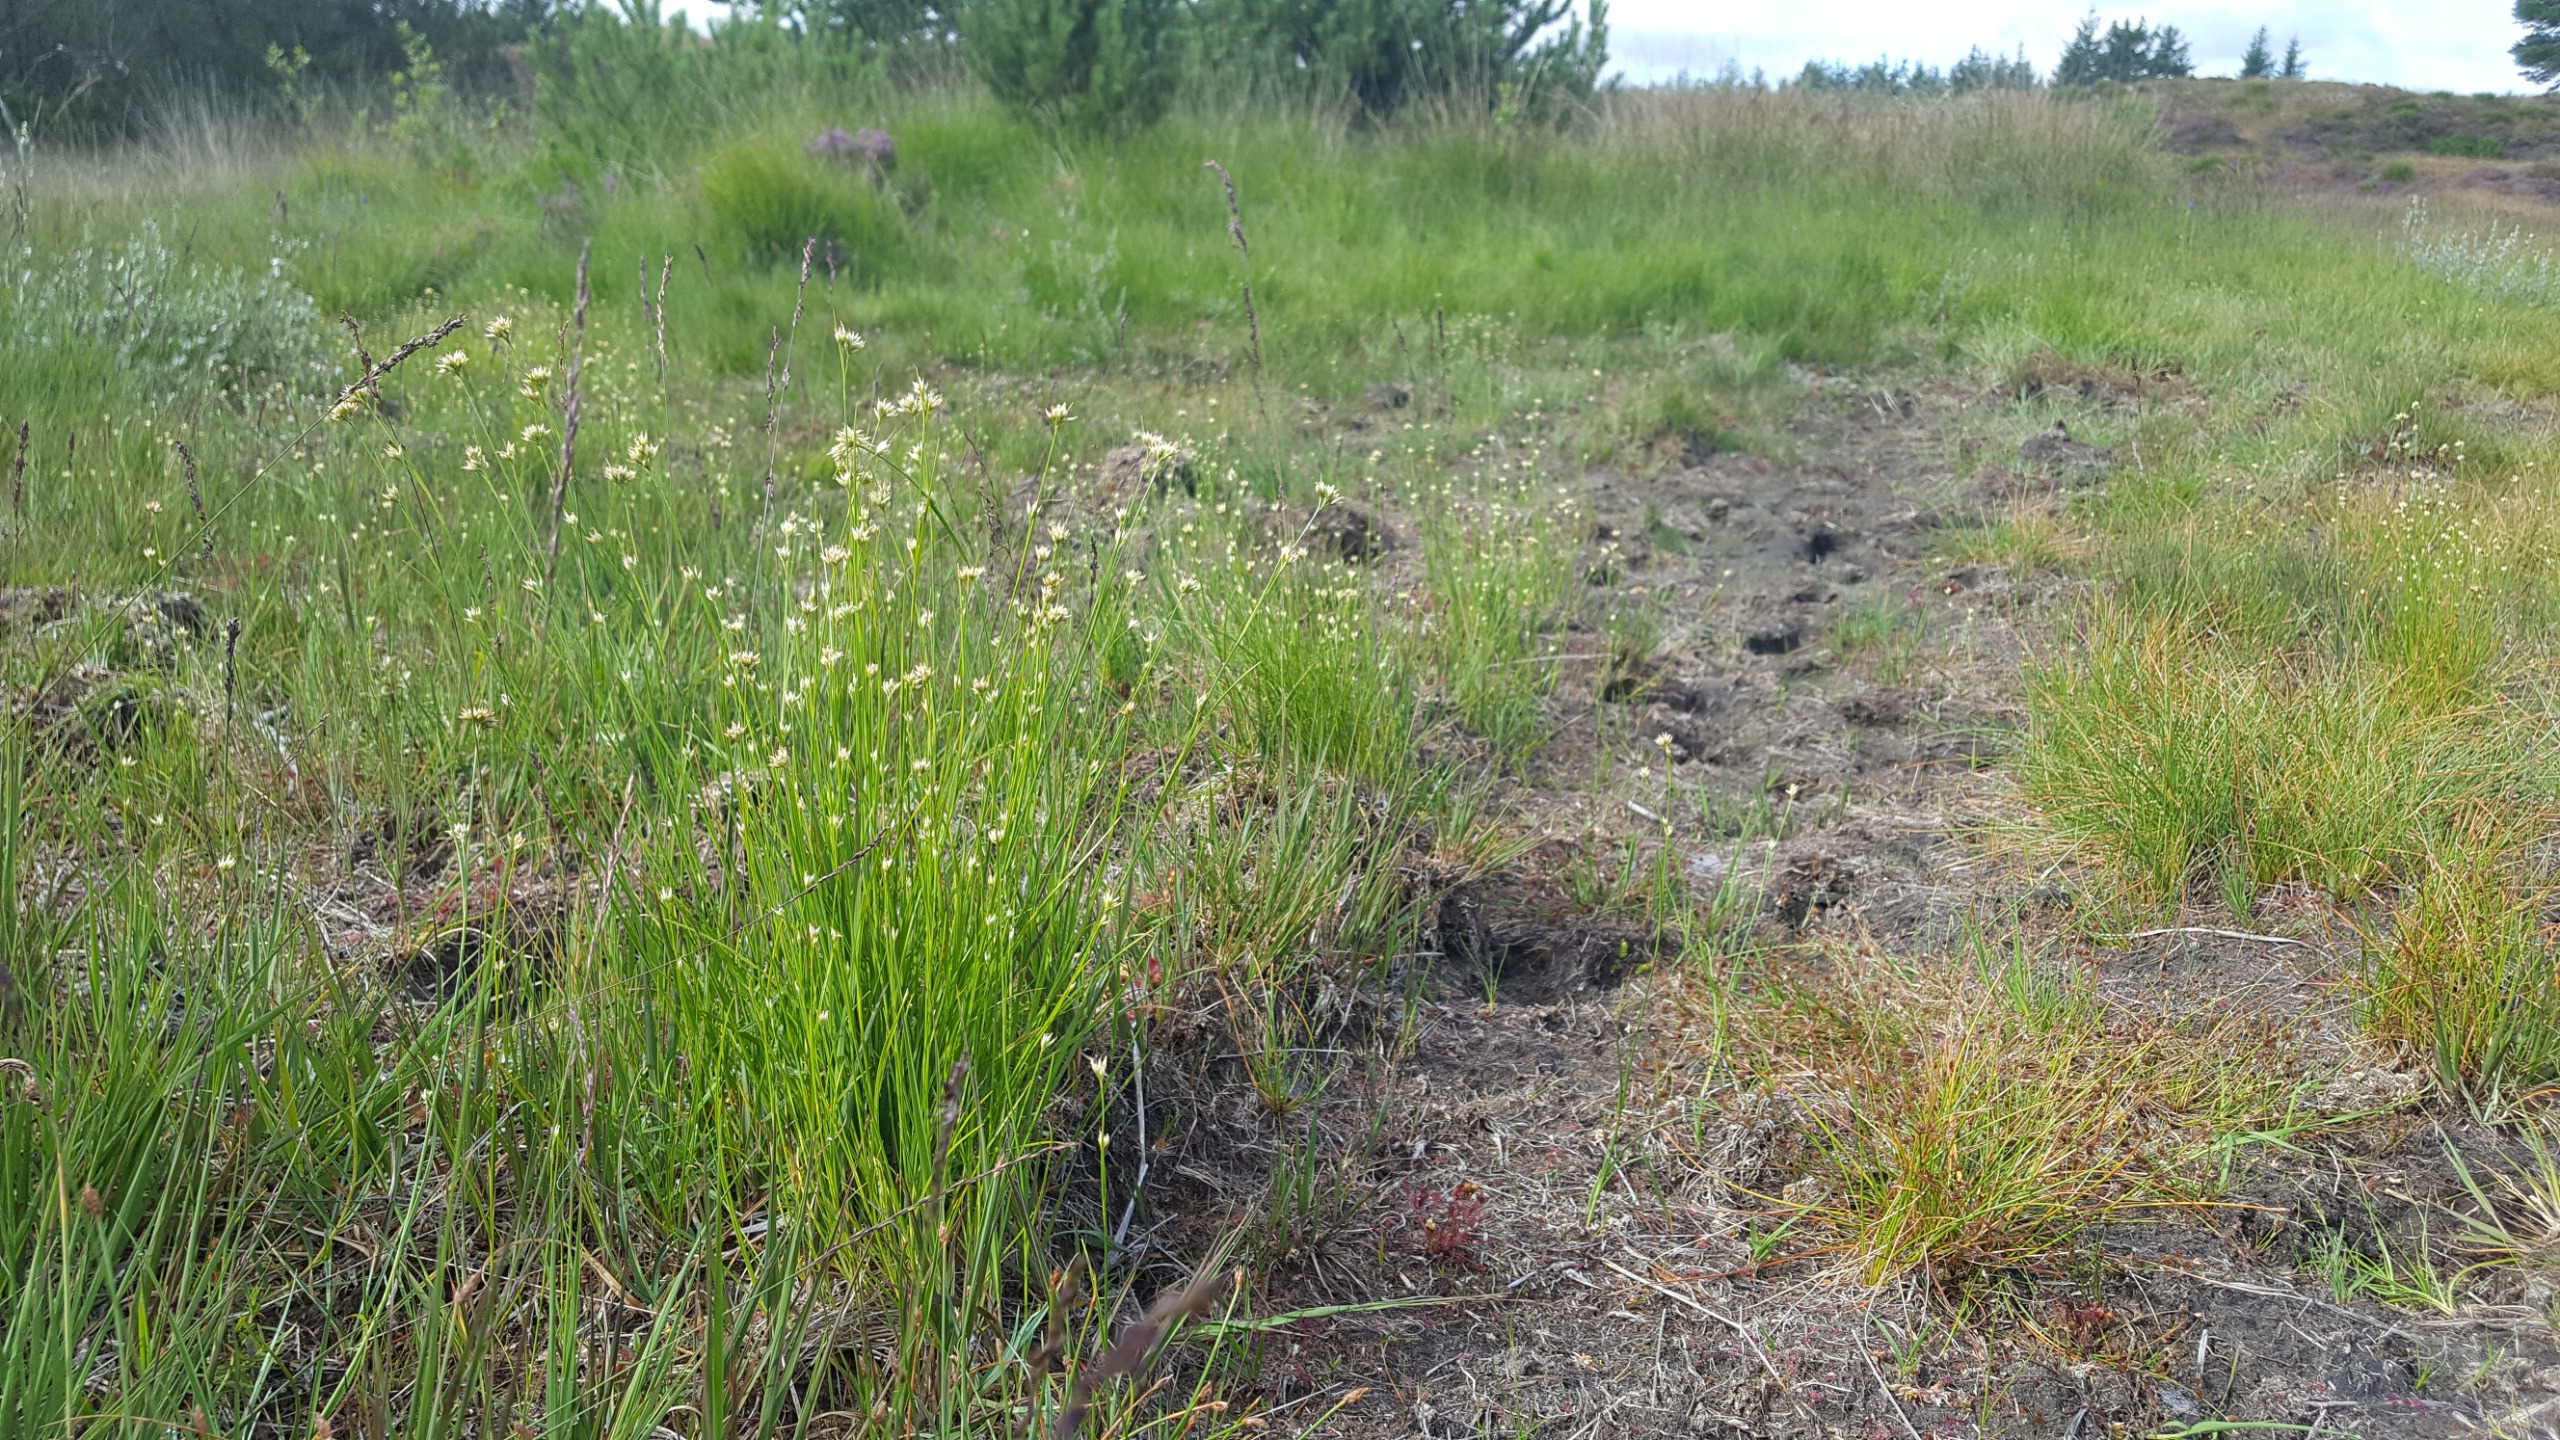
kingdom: Plantae
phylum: Tracheophyta
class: Liliopsida
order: Poales
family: Cyperaceae
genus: Rhynchospora
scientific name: Rhynchospora alba
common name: Hvid næbfrø
